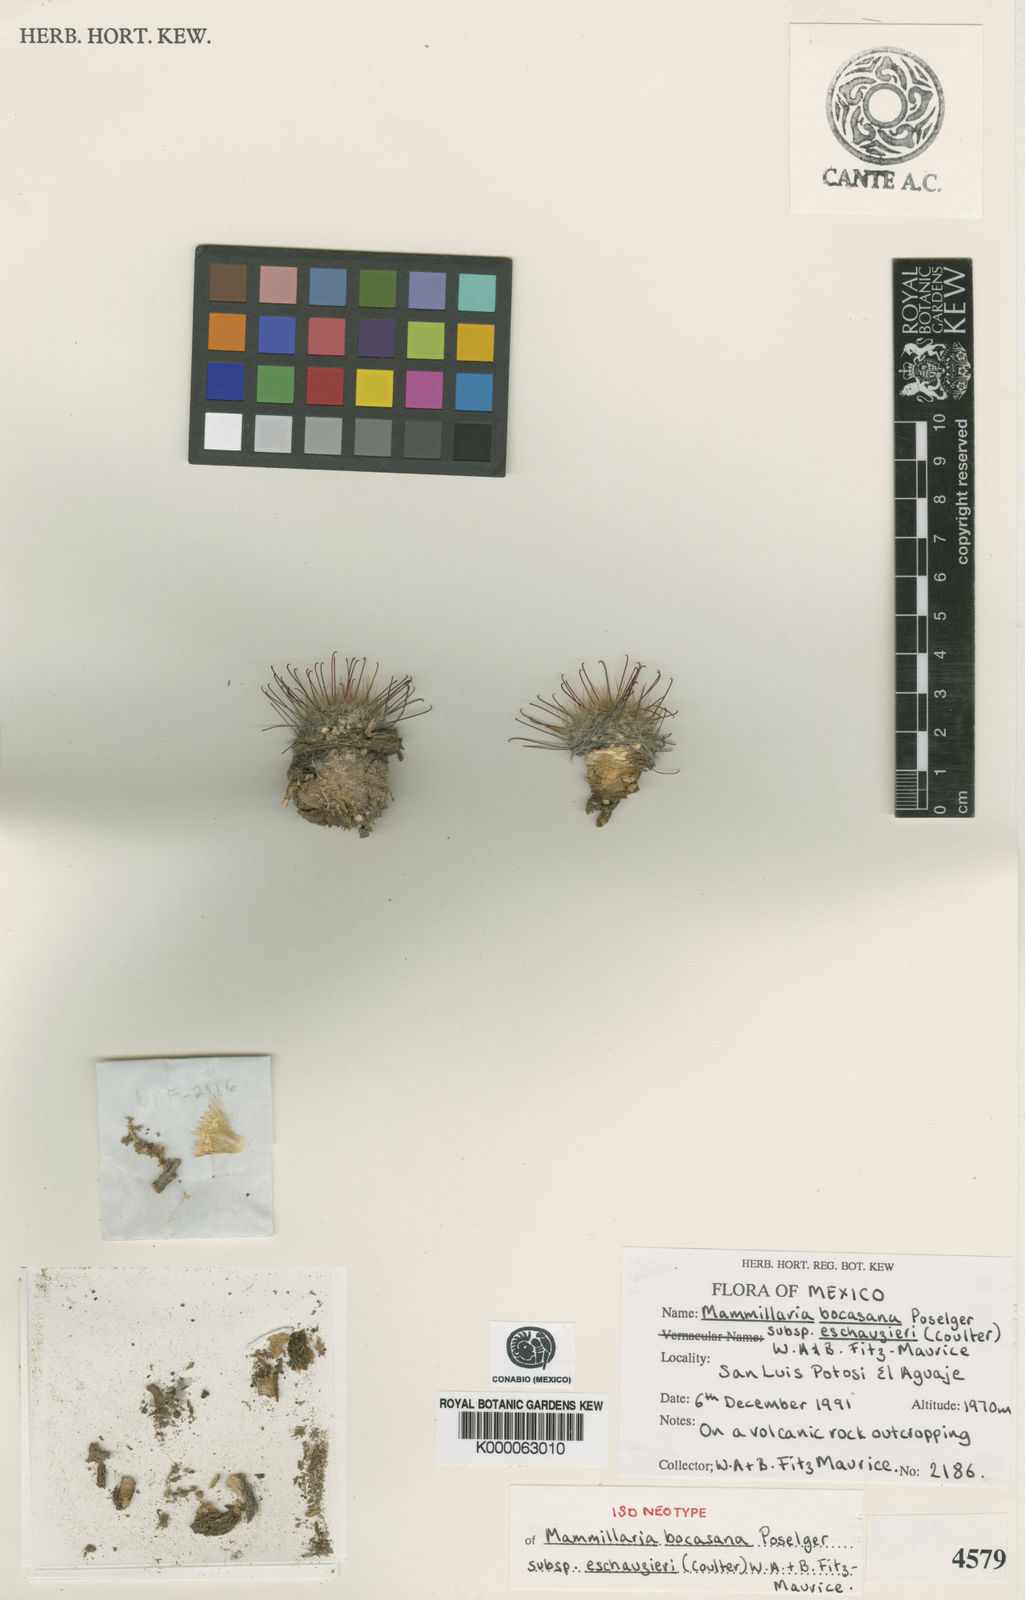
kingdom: Plantae
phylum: Tracheophyta
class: Magnoliopsida
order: Caryophyllales
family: Cactaceae
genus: Mammillaria
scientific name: Mammillaria bocasana
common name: Powder-puff cactus
